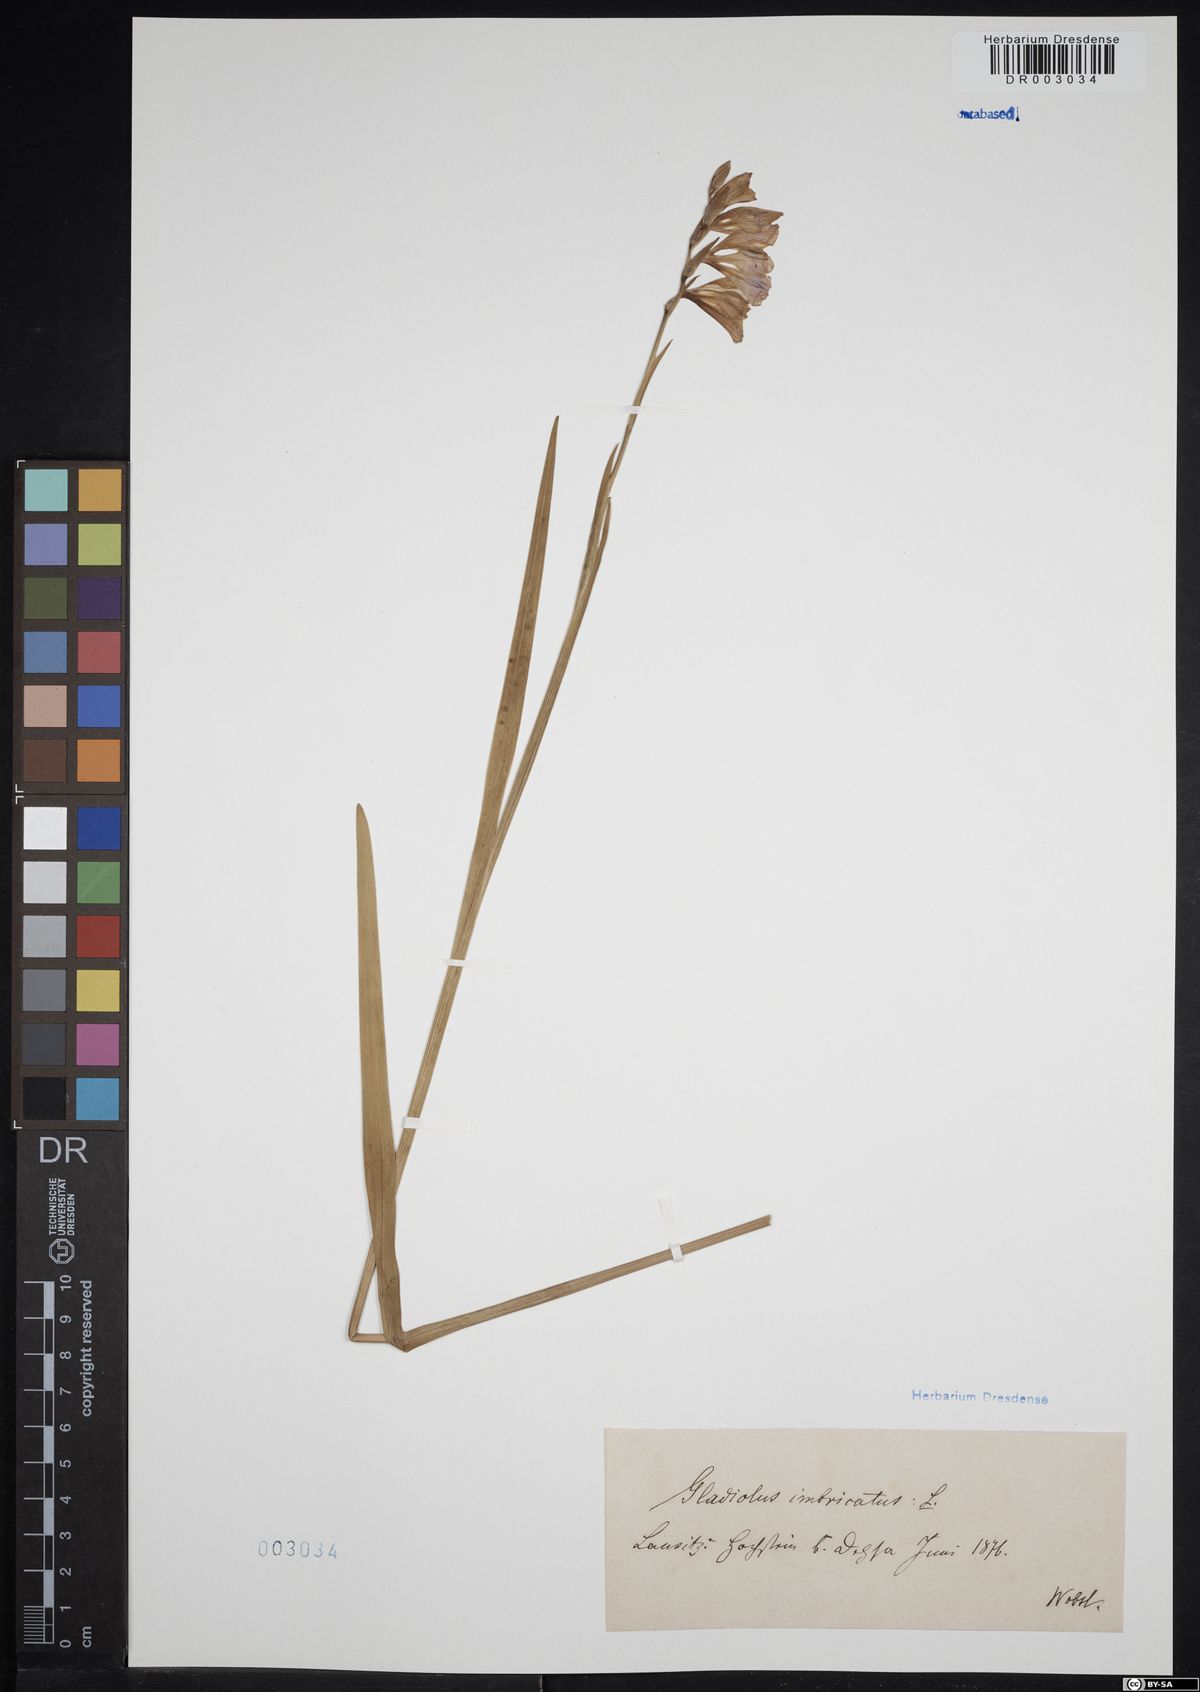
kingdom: Plantae
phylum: Tracheophyta
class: Liliopsida
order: Asparagales
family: Iridaceae
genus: Gladiolus
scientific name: Gladiolus imbricatus
